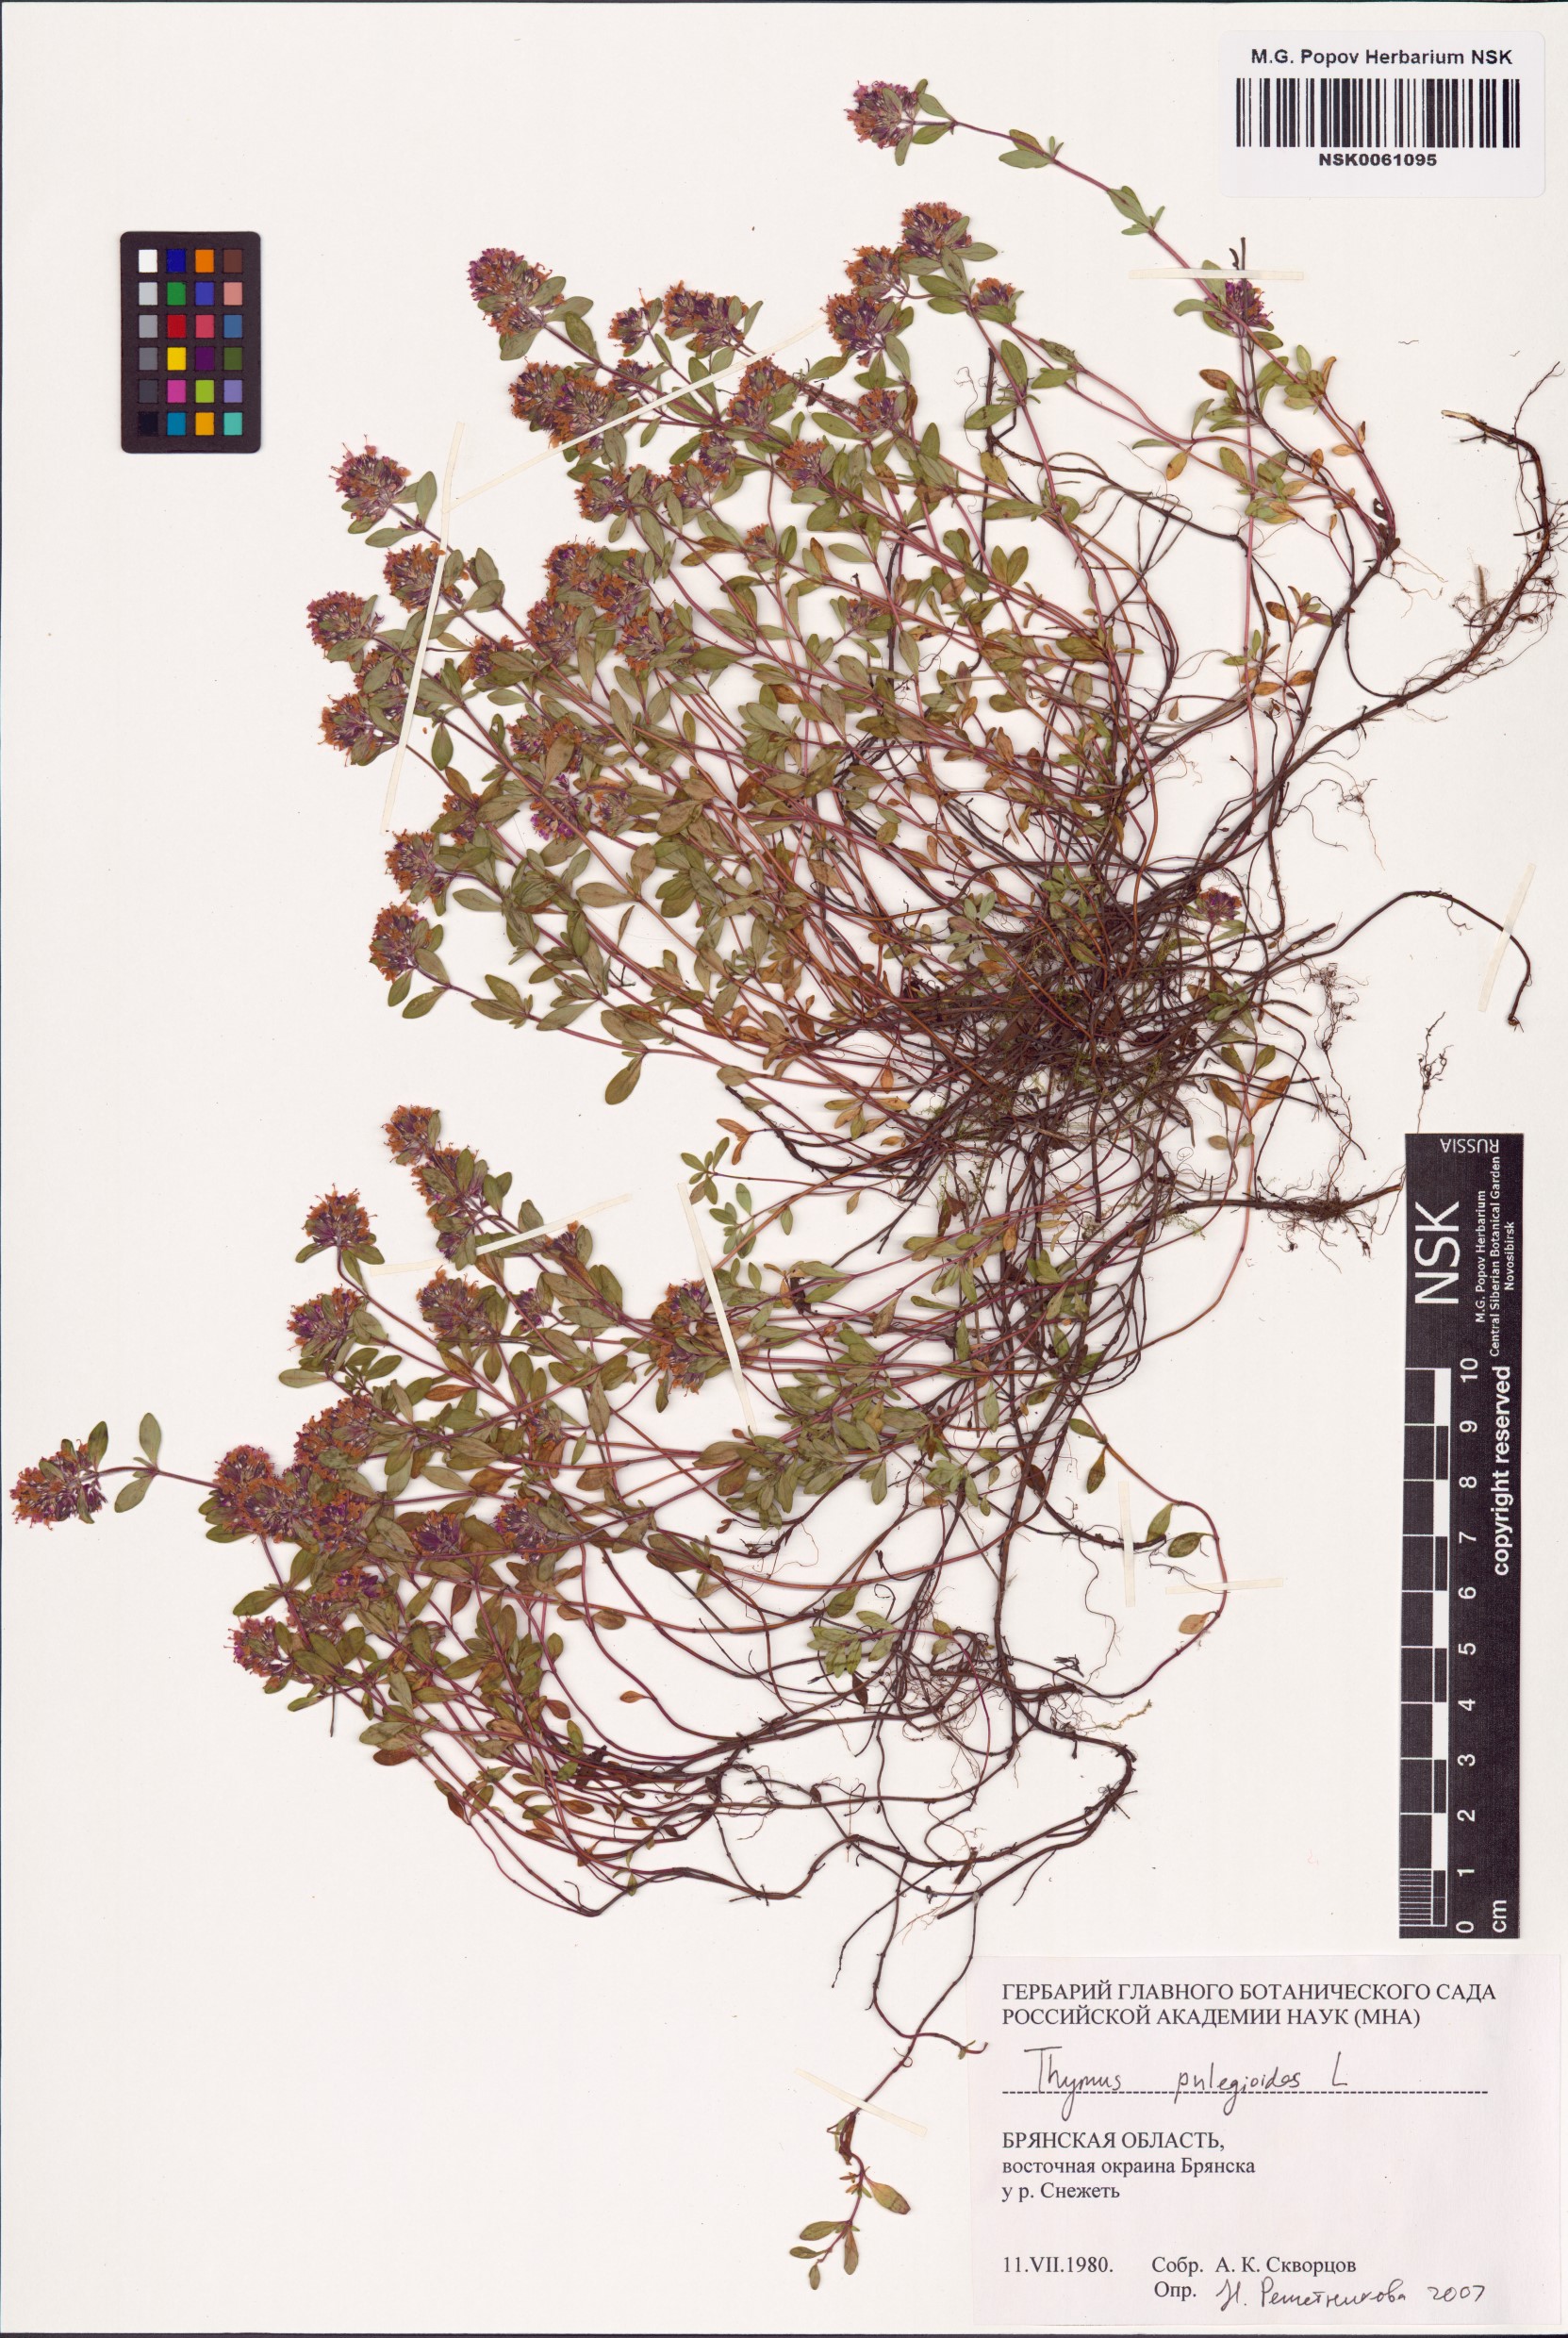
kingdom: Plantae
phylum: Tracheophyta
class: Magnoliopsida
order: Lamiales
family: Lamiaceae
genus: Thymus
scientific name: Thymus pulegioides
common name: Large thyme
